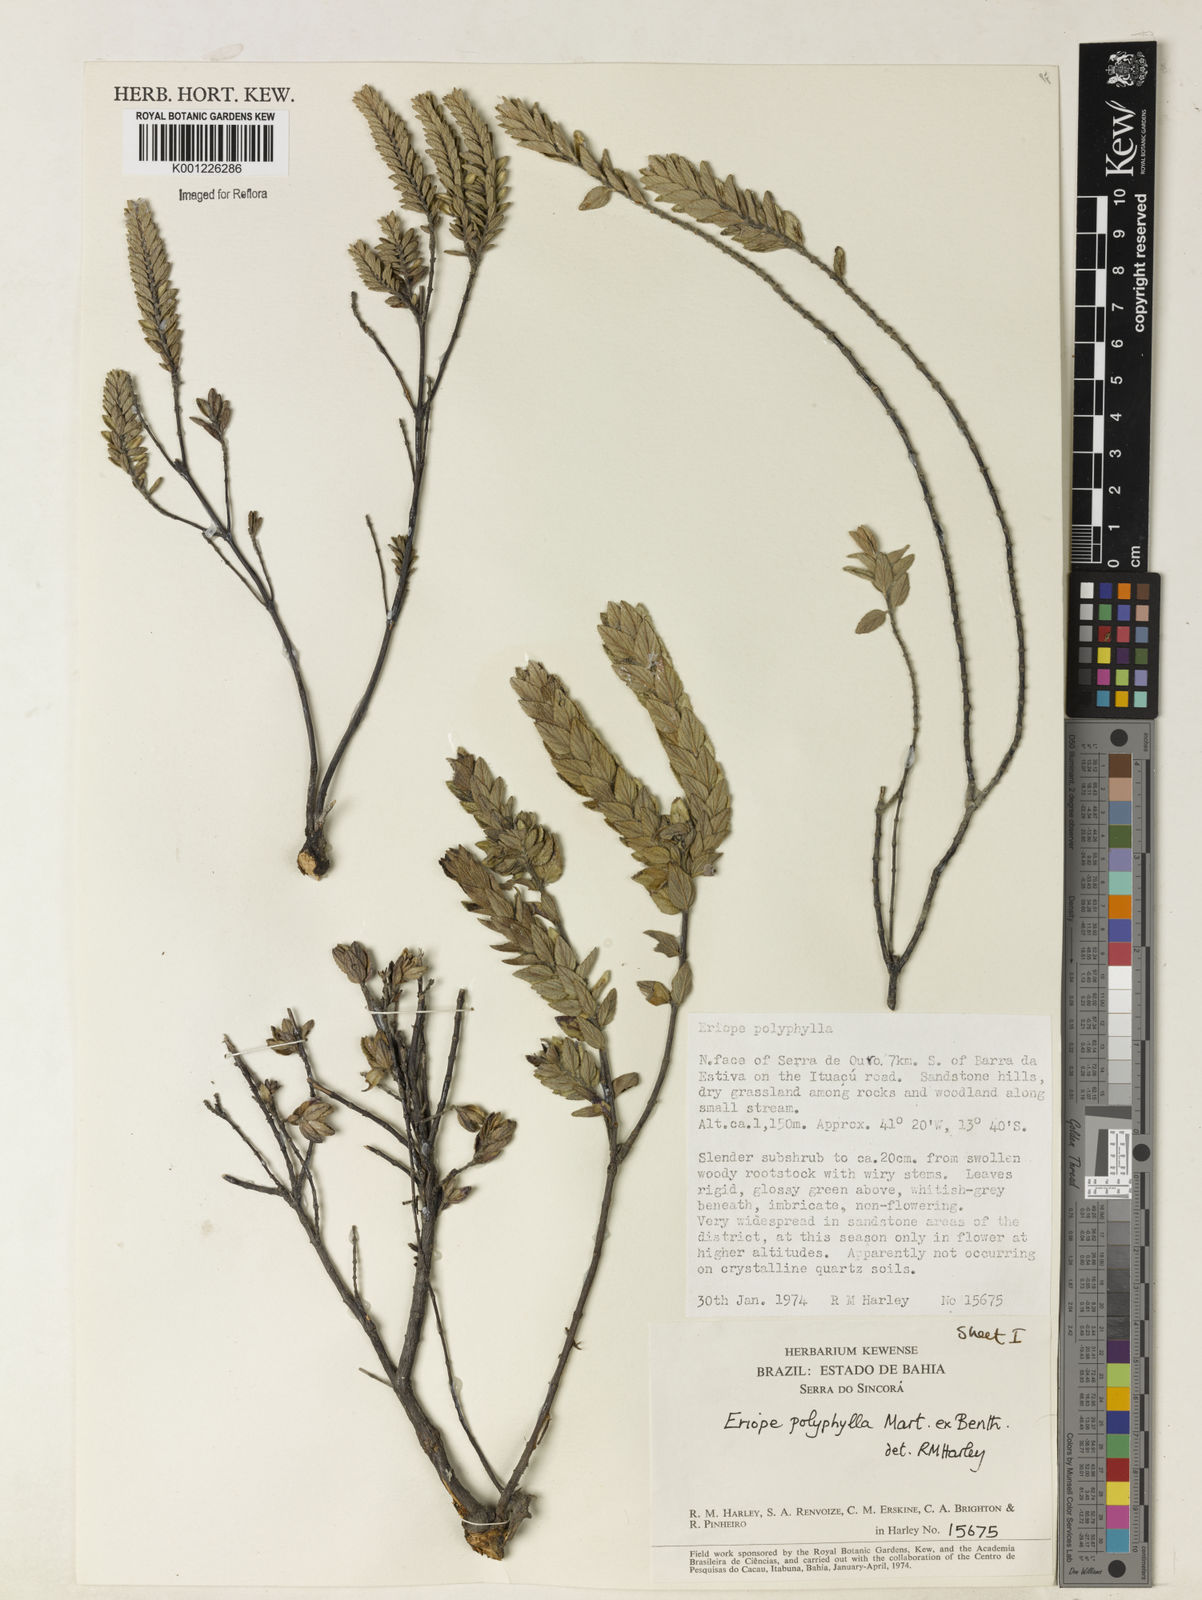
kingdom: Plantae
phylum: Tracheophyta
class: Magnoliopsida
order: Lamiales
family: Lamiaceae
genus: Eriope
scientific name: Eriope polyphylla
